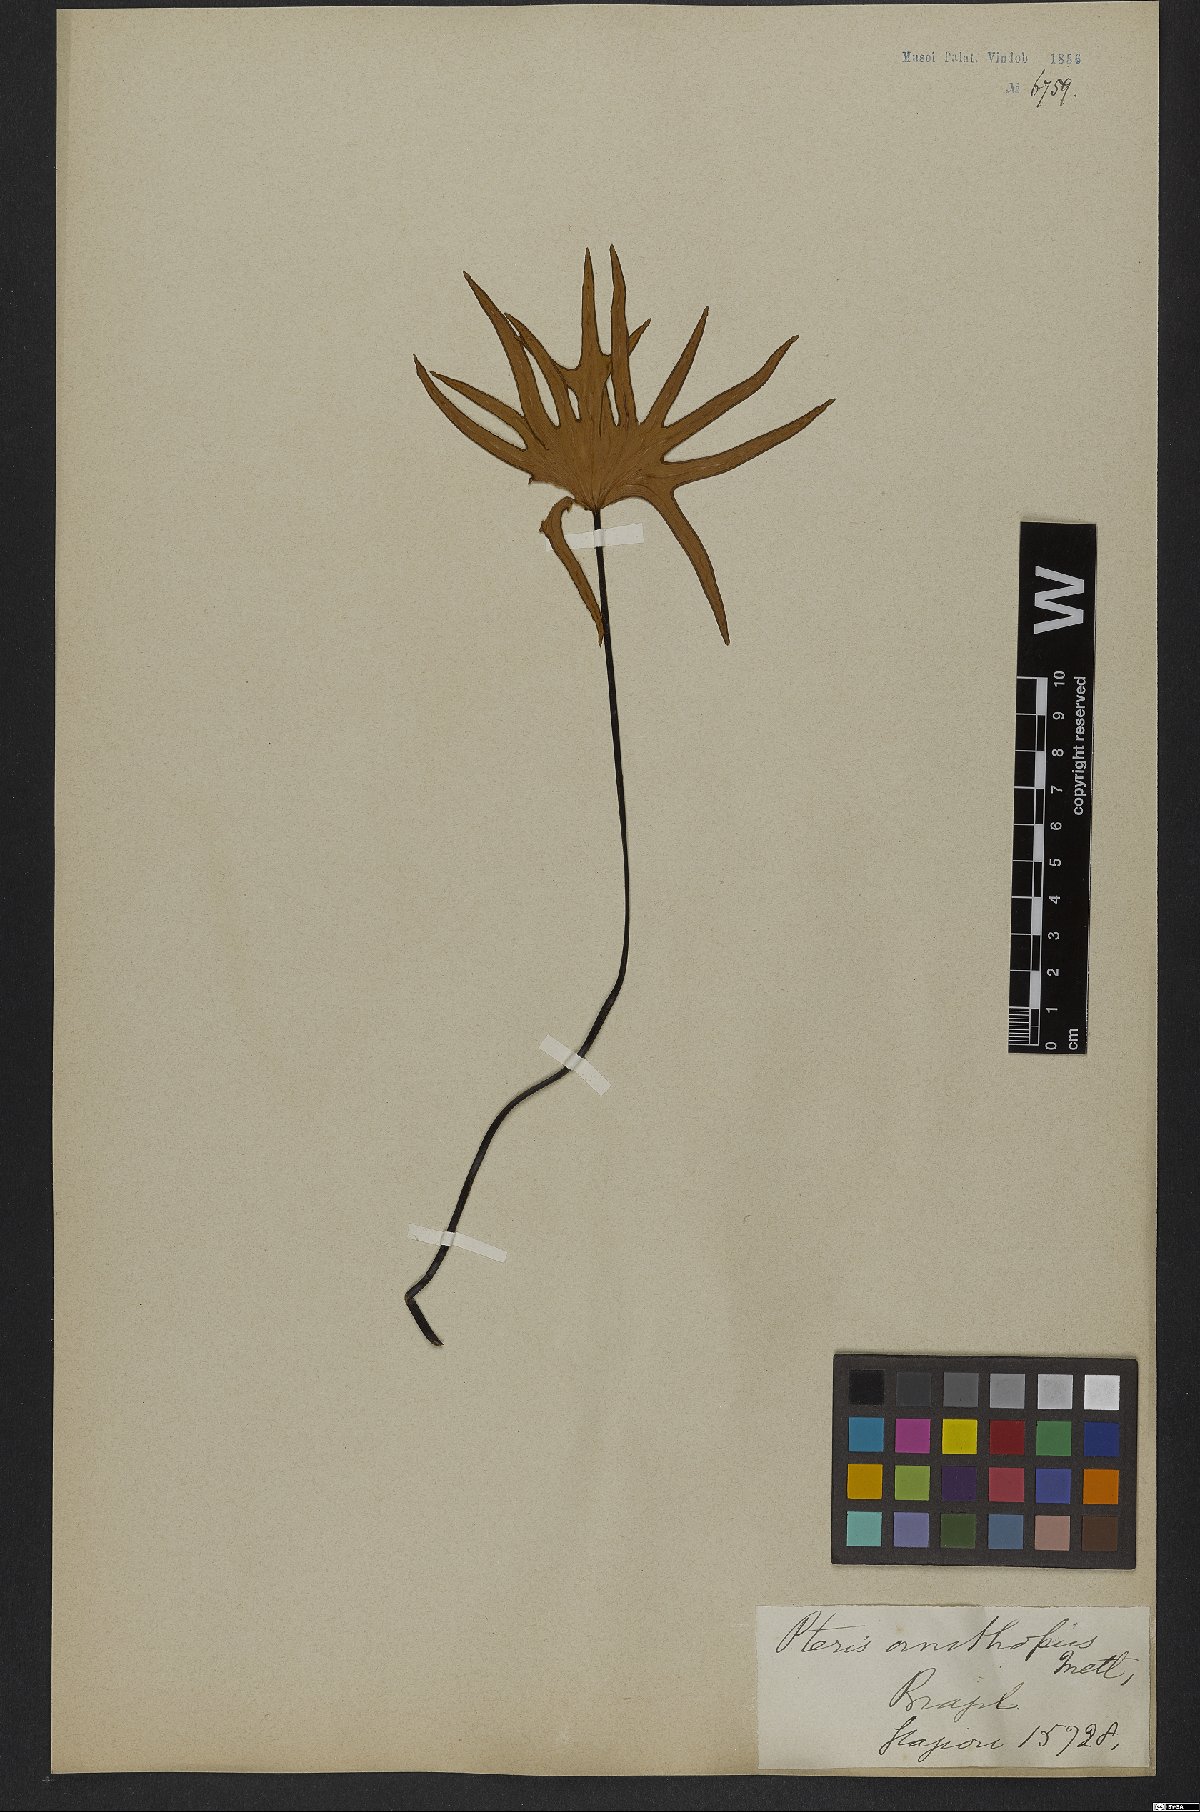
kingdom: Plantae
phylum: Tracheophyta
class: Polypodiopsida
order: Polypodiales
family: Pteridaceae
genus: Lytoneuron
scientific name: Lytoneuron ornithopus
